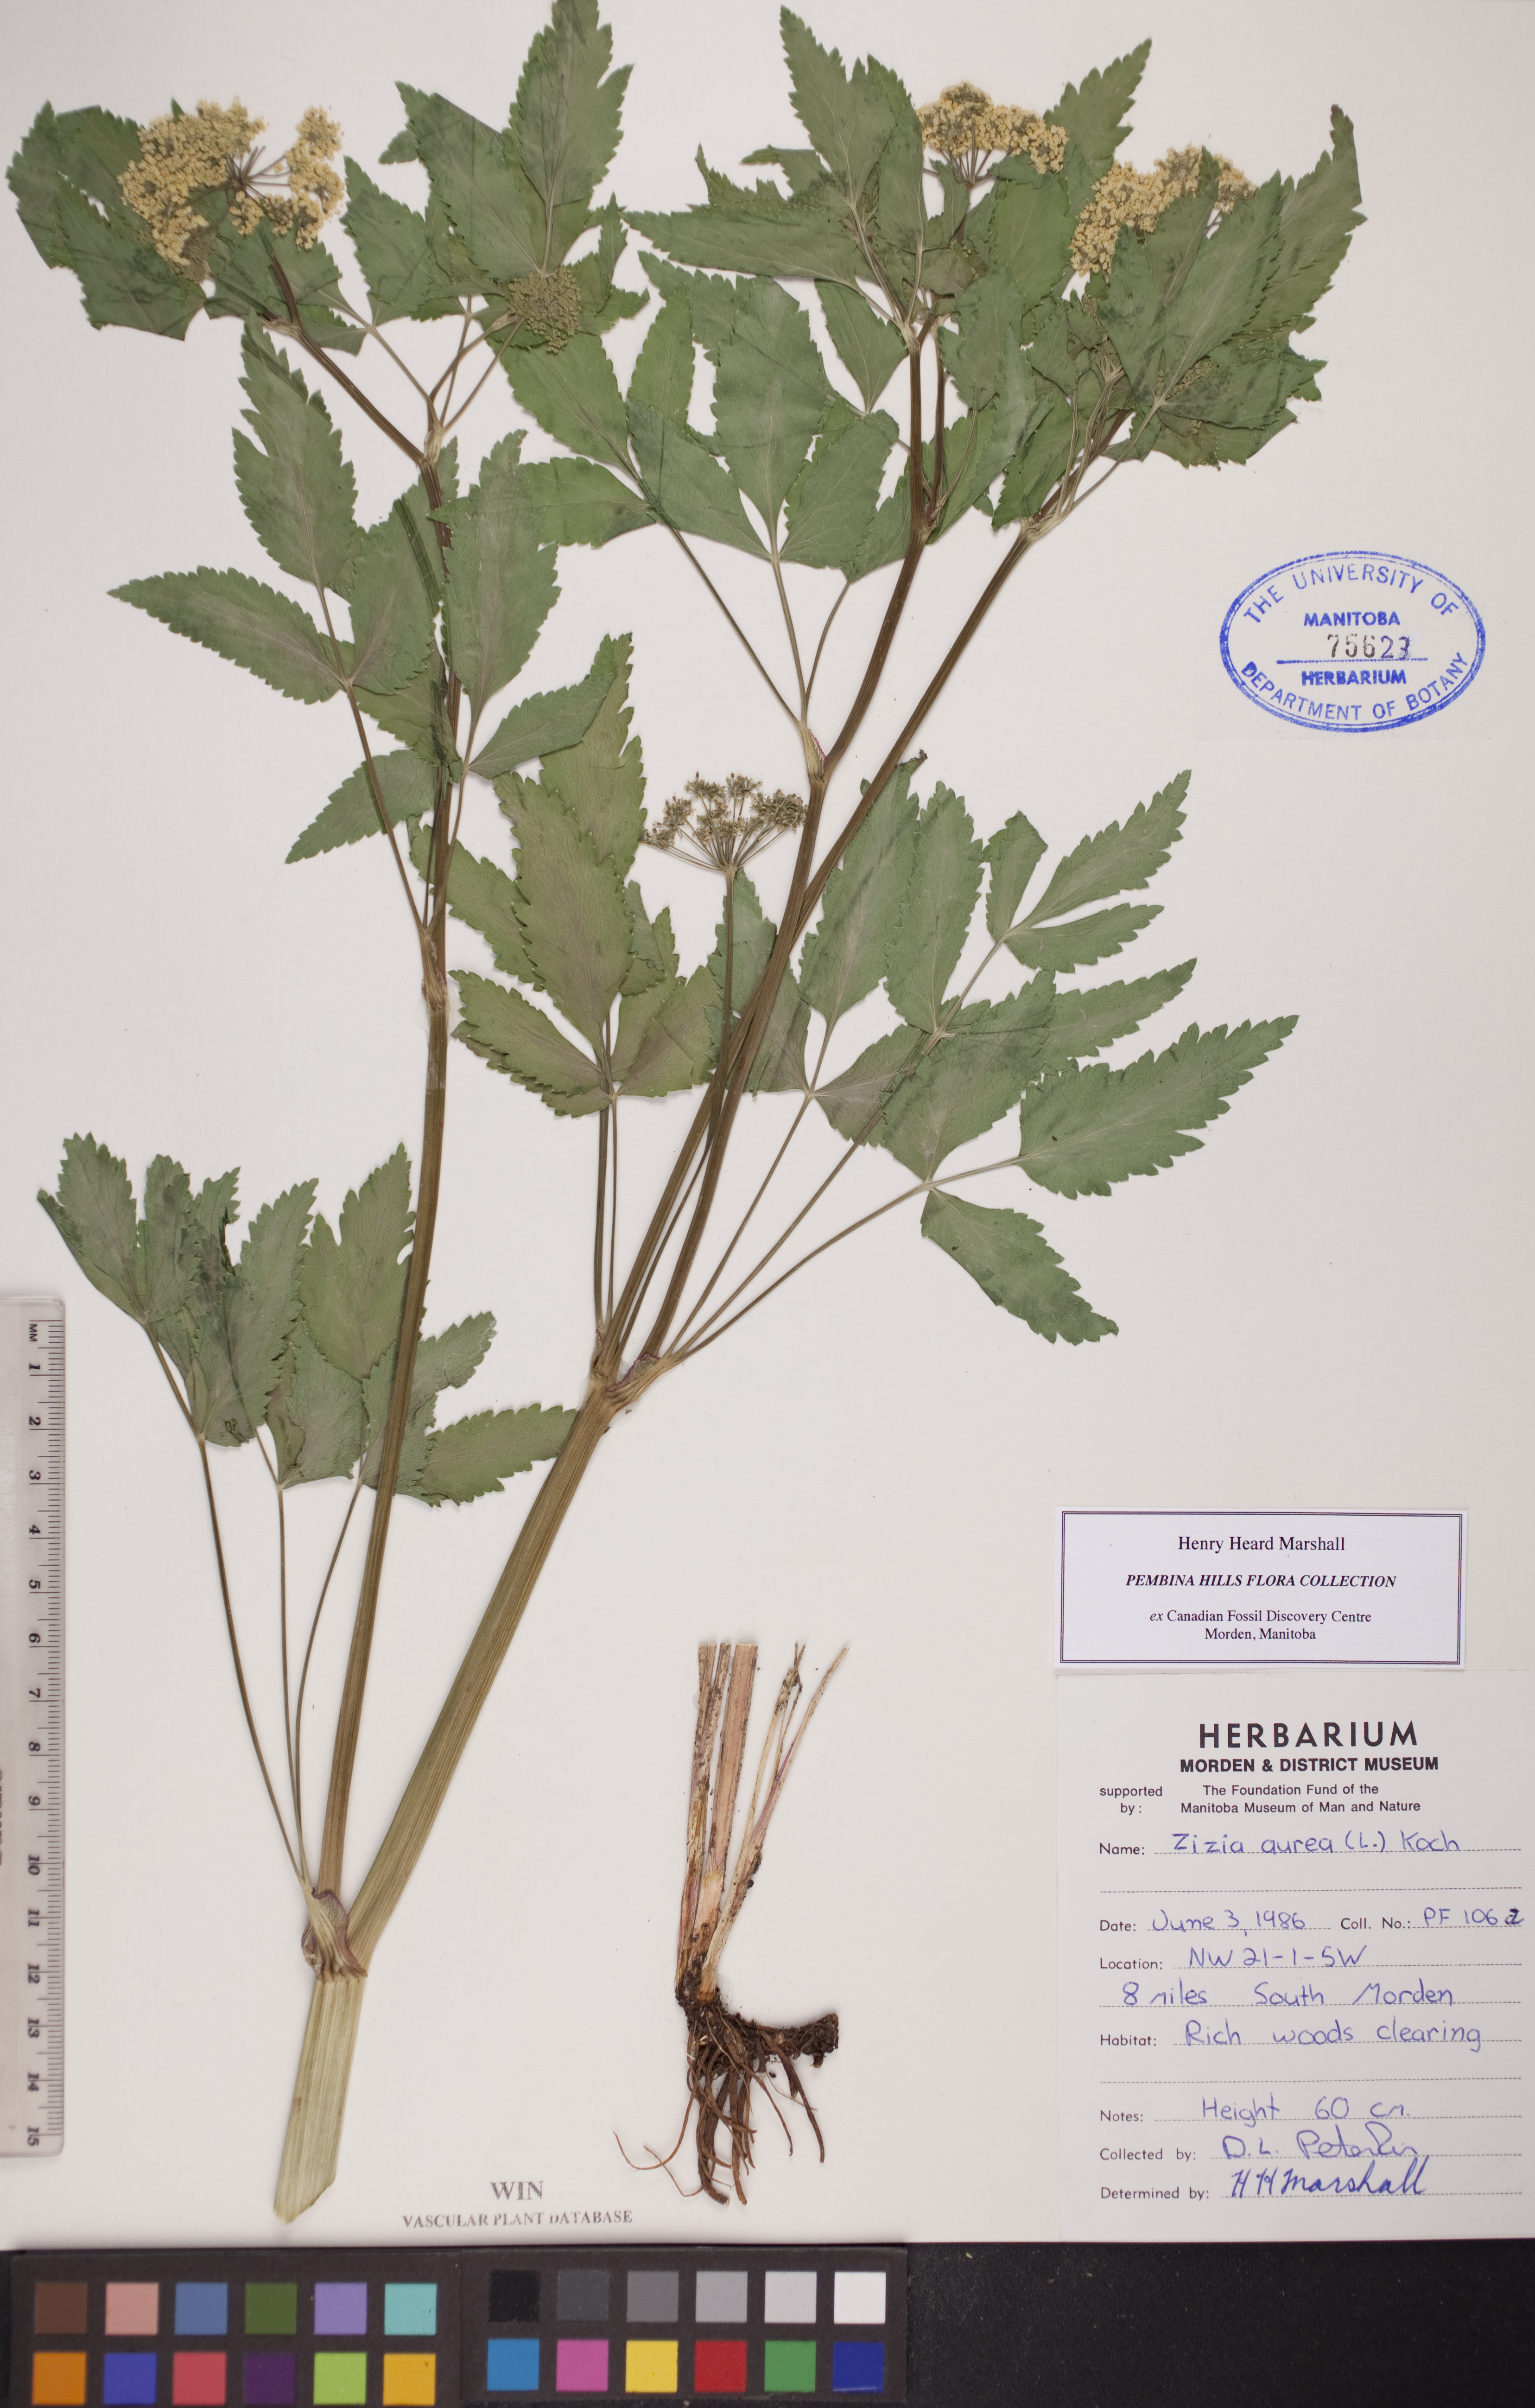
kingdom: Plantae
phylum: Tracheophyta
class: Magnoliopsida
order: Apiales
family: Apiaceae
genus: Zizia
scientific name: Zizia aurea
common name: Golden alexanders
